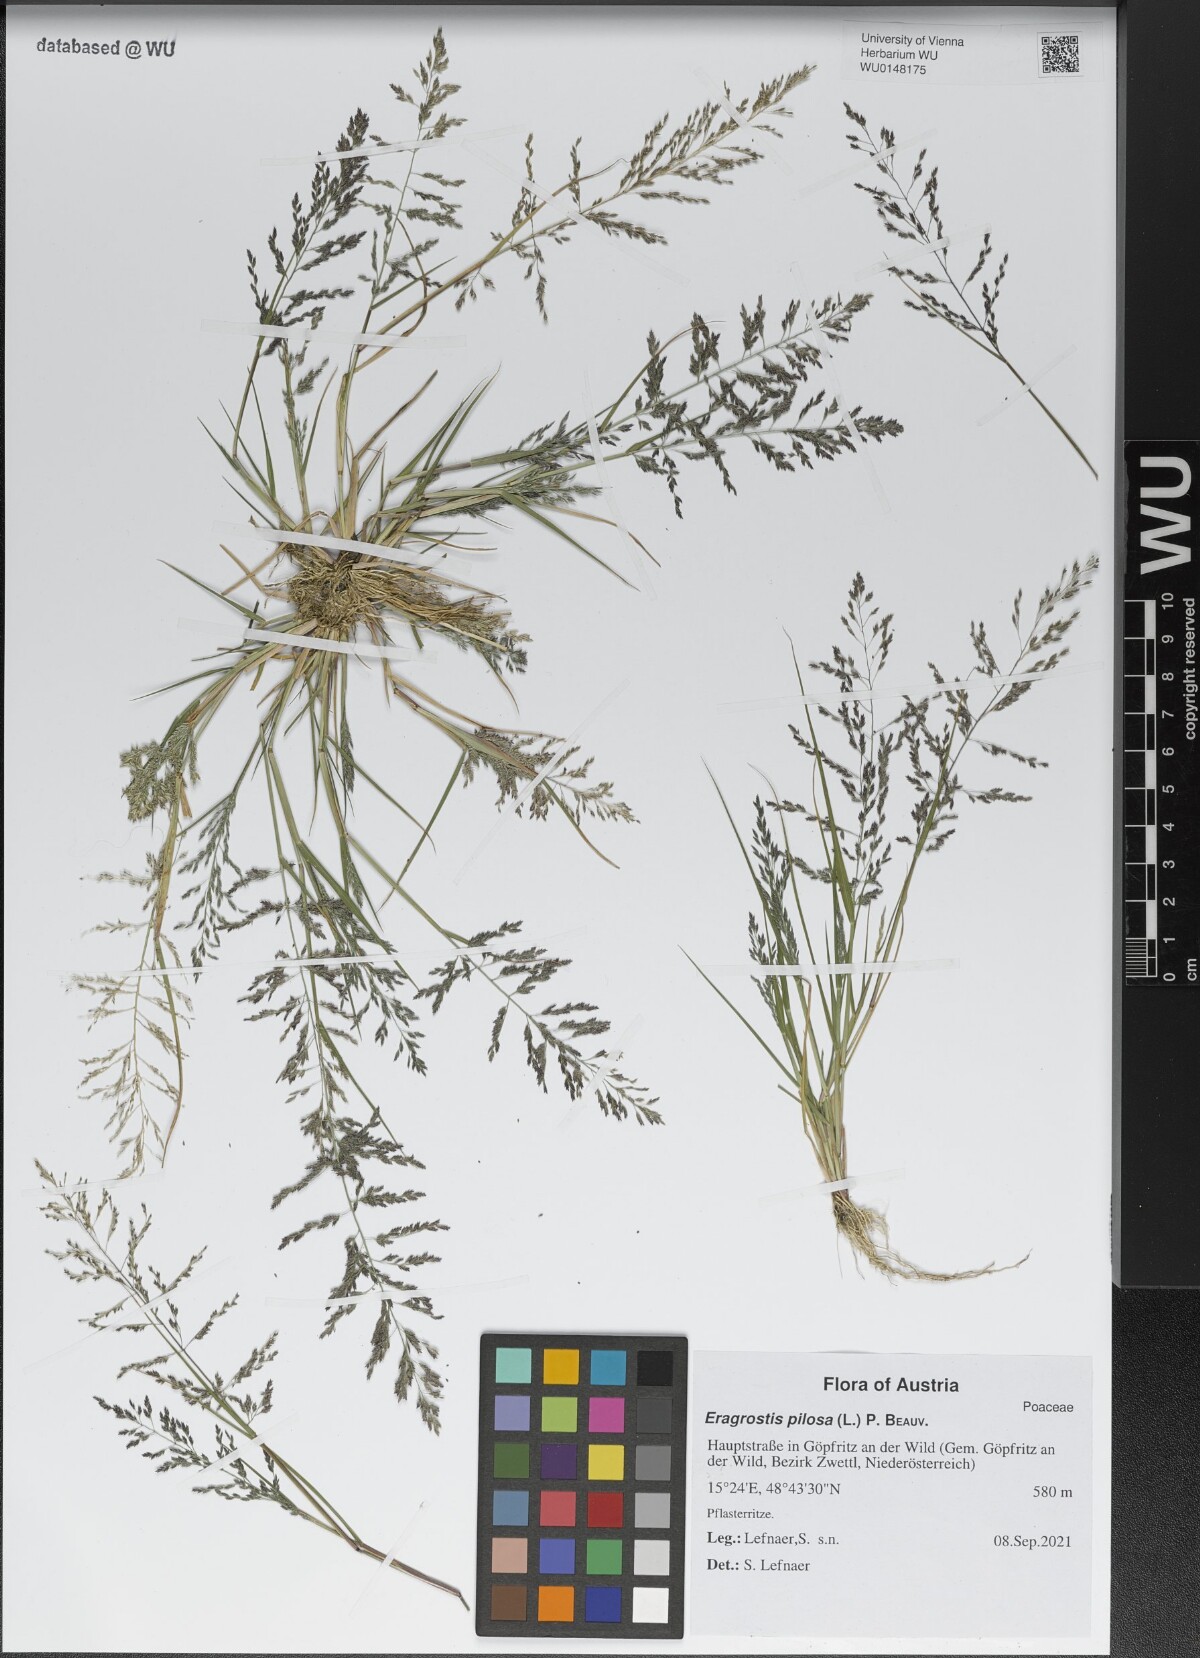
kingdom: Plantae
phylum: Tracheophyta
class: Liliopsida
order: Poales
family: Poaceae
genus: Eragrostis
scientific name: Eragrostis pilosa
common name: Indian lovegrass
